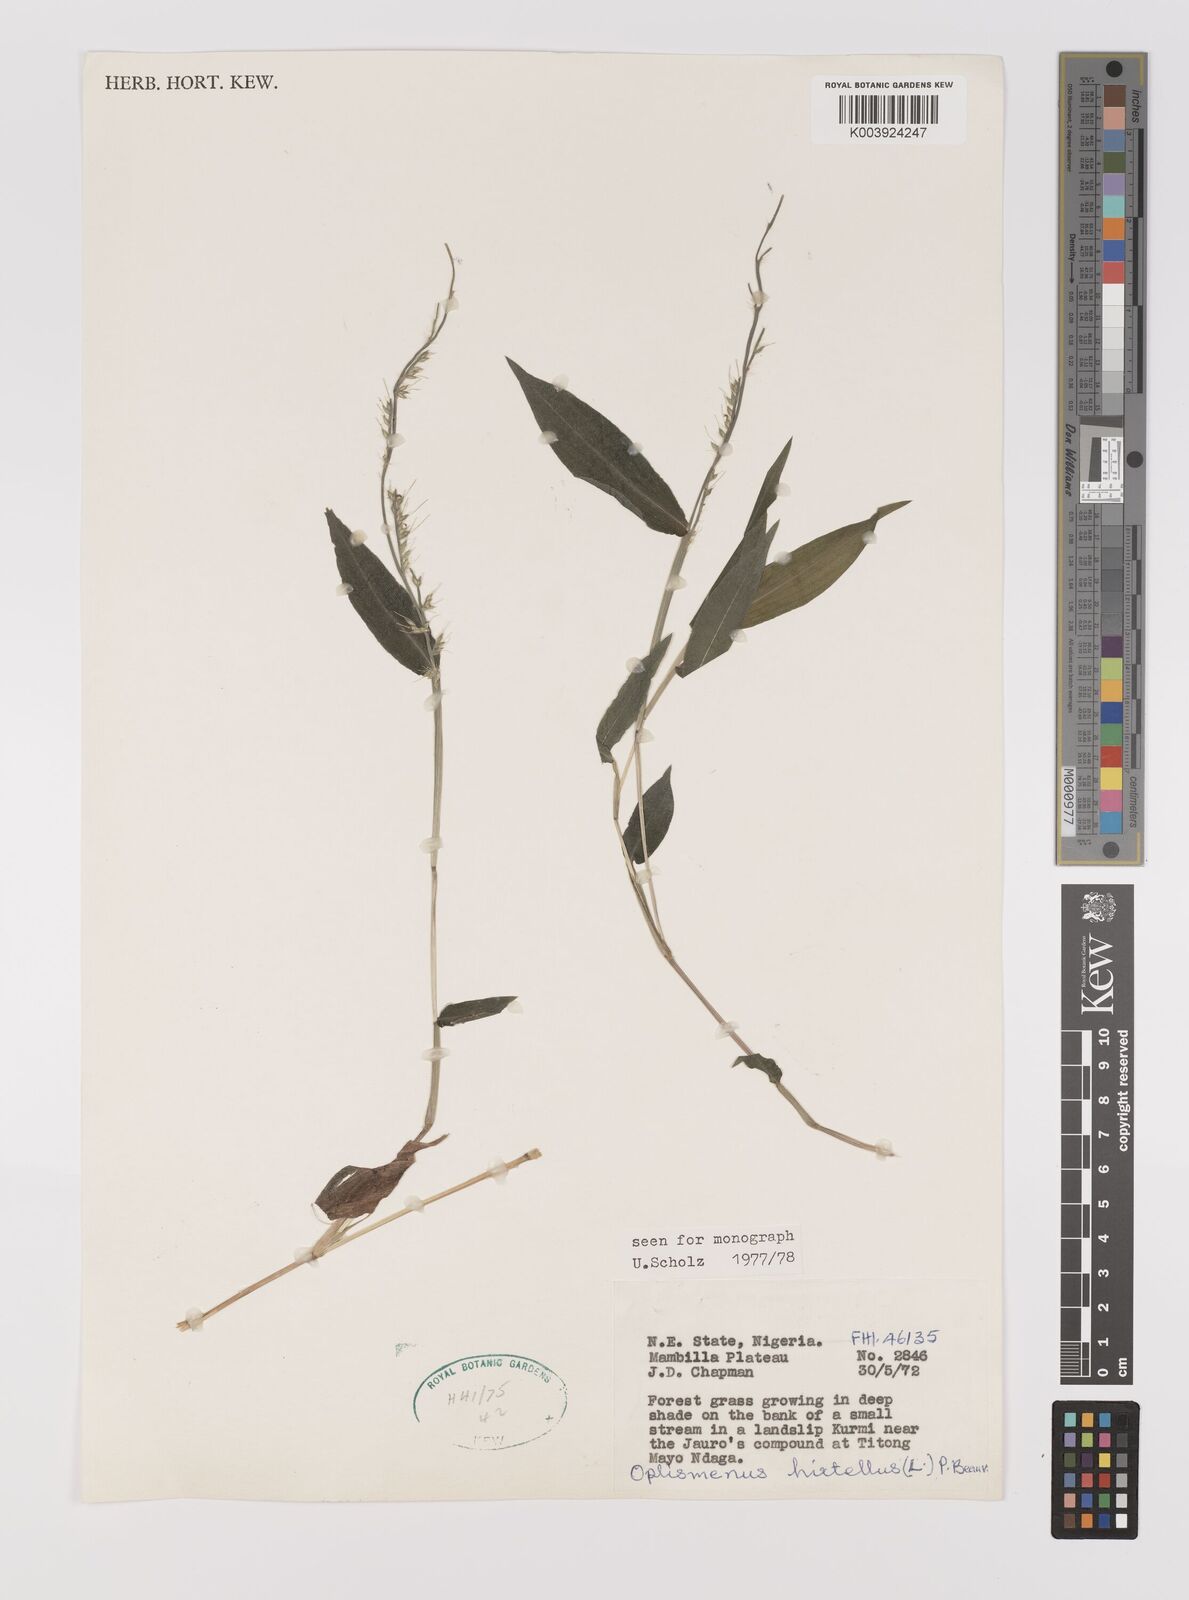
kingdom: Plantae
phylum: Tracheophyta
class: Liliopsida
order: Poales
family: Poaceae
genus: Oplismenus
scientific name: Oplismenus hirtellus
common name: Basketgrass
